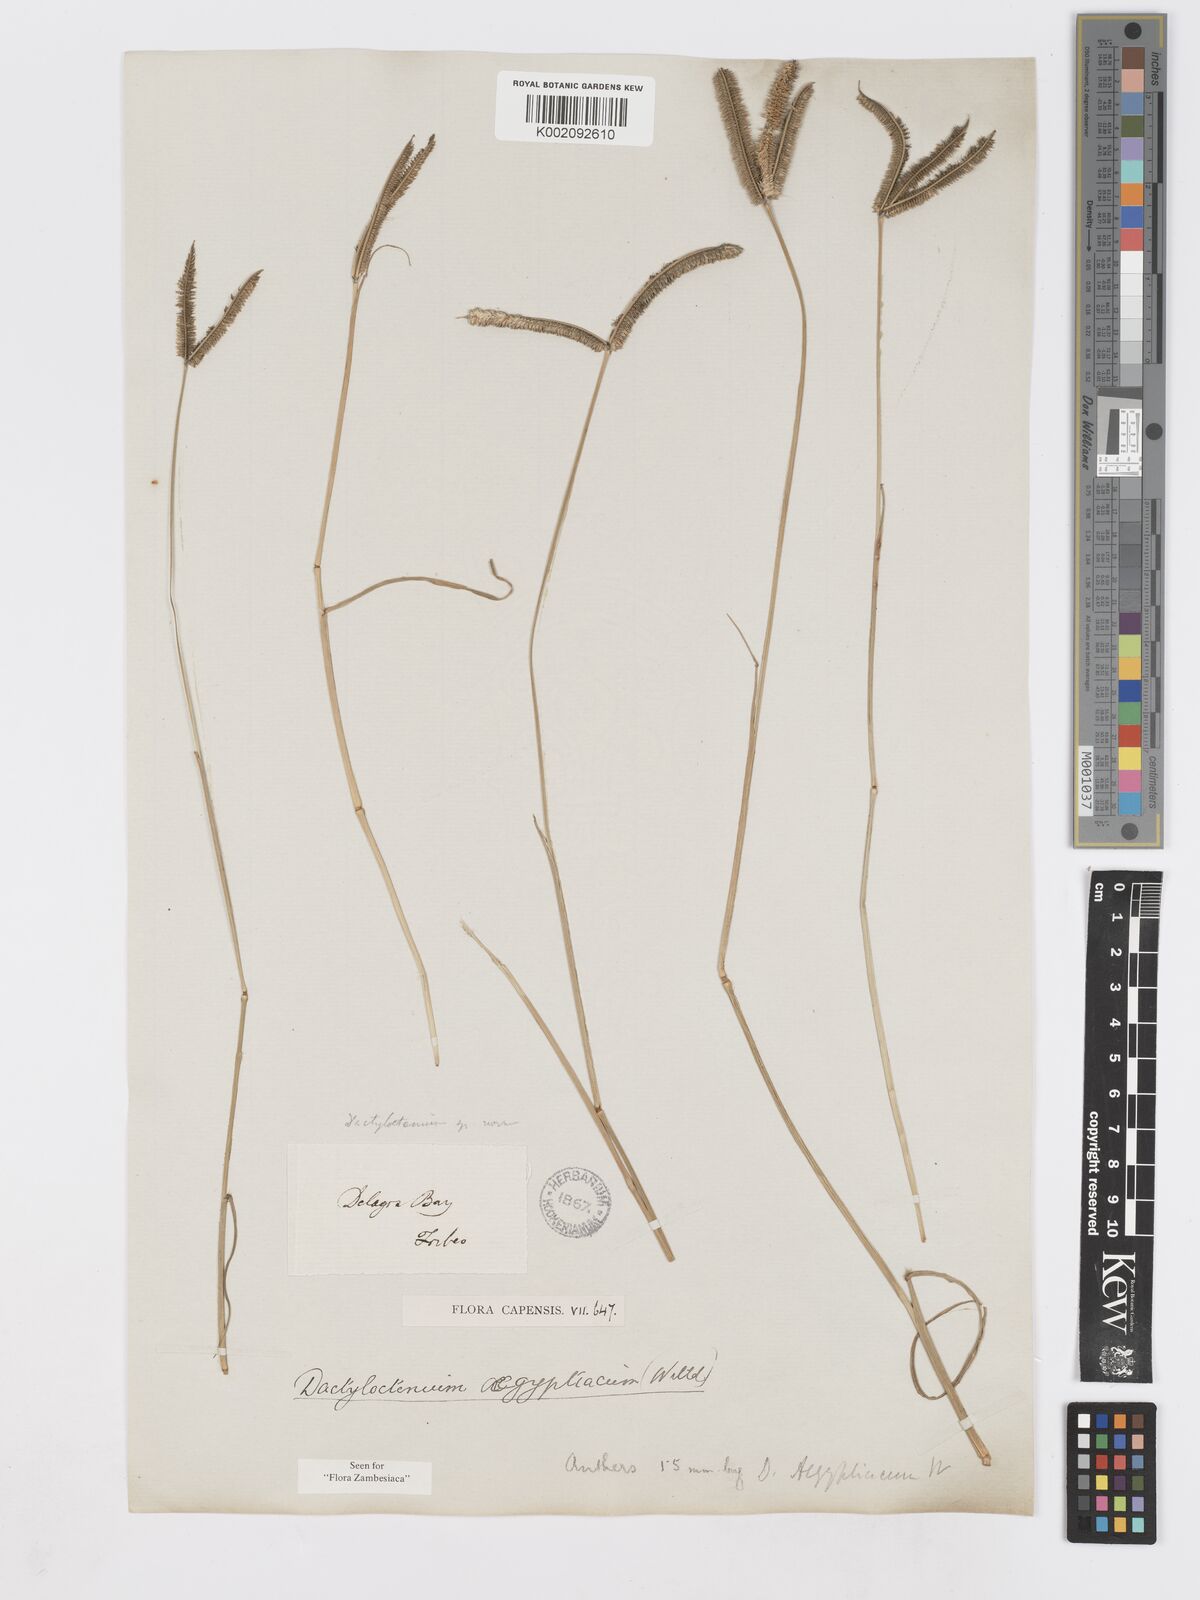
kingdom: Plantae
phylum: Tracheophyta
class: Liliopsida
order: Poales
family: Poaceae
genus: Dactyloctenium
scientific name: Dactyloctenium geminatum
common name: Crowsfoot grass
